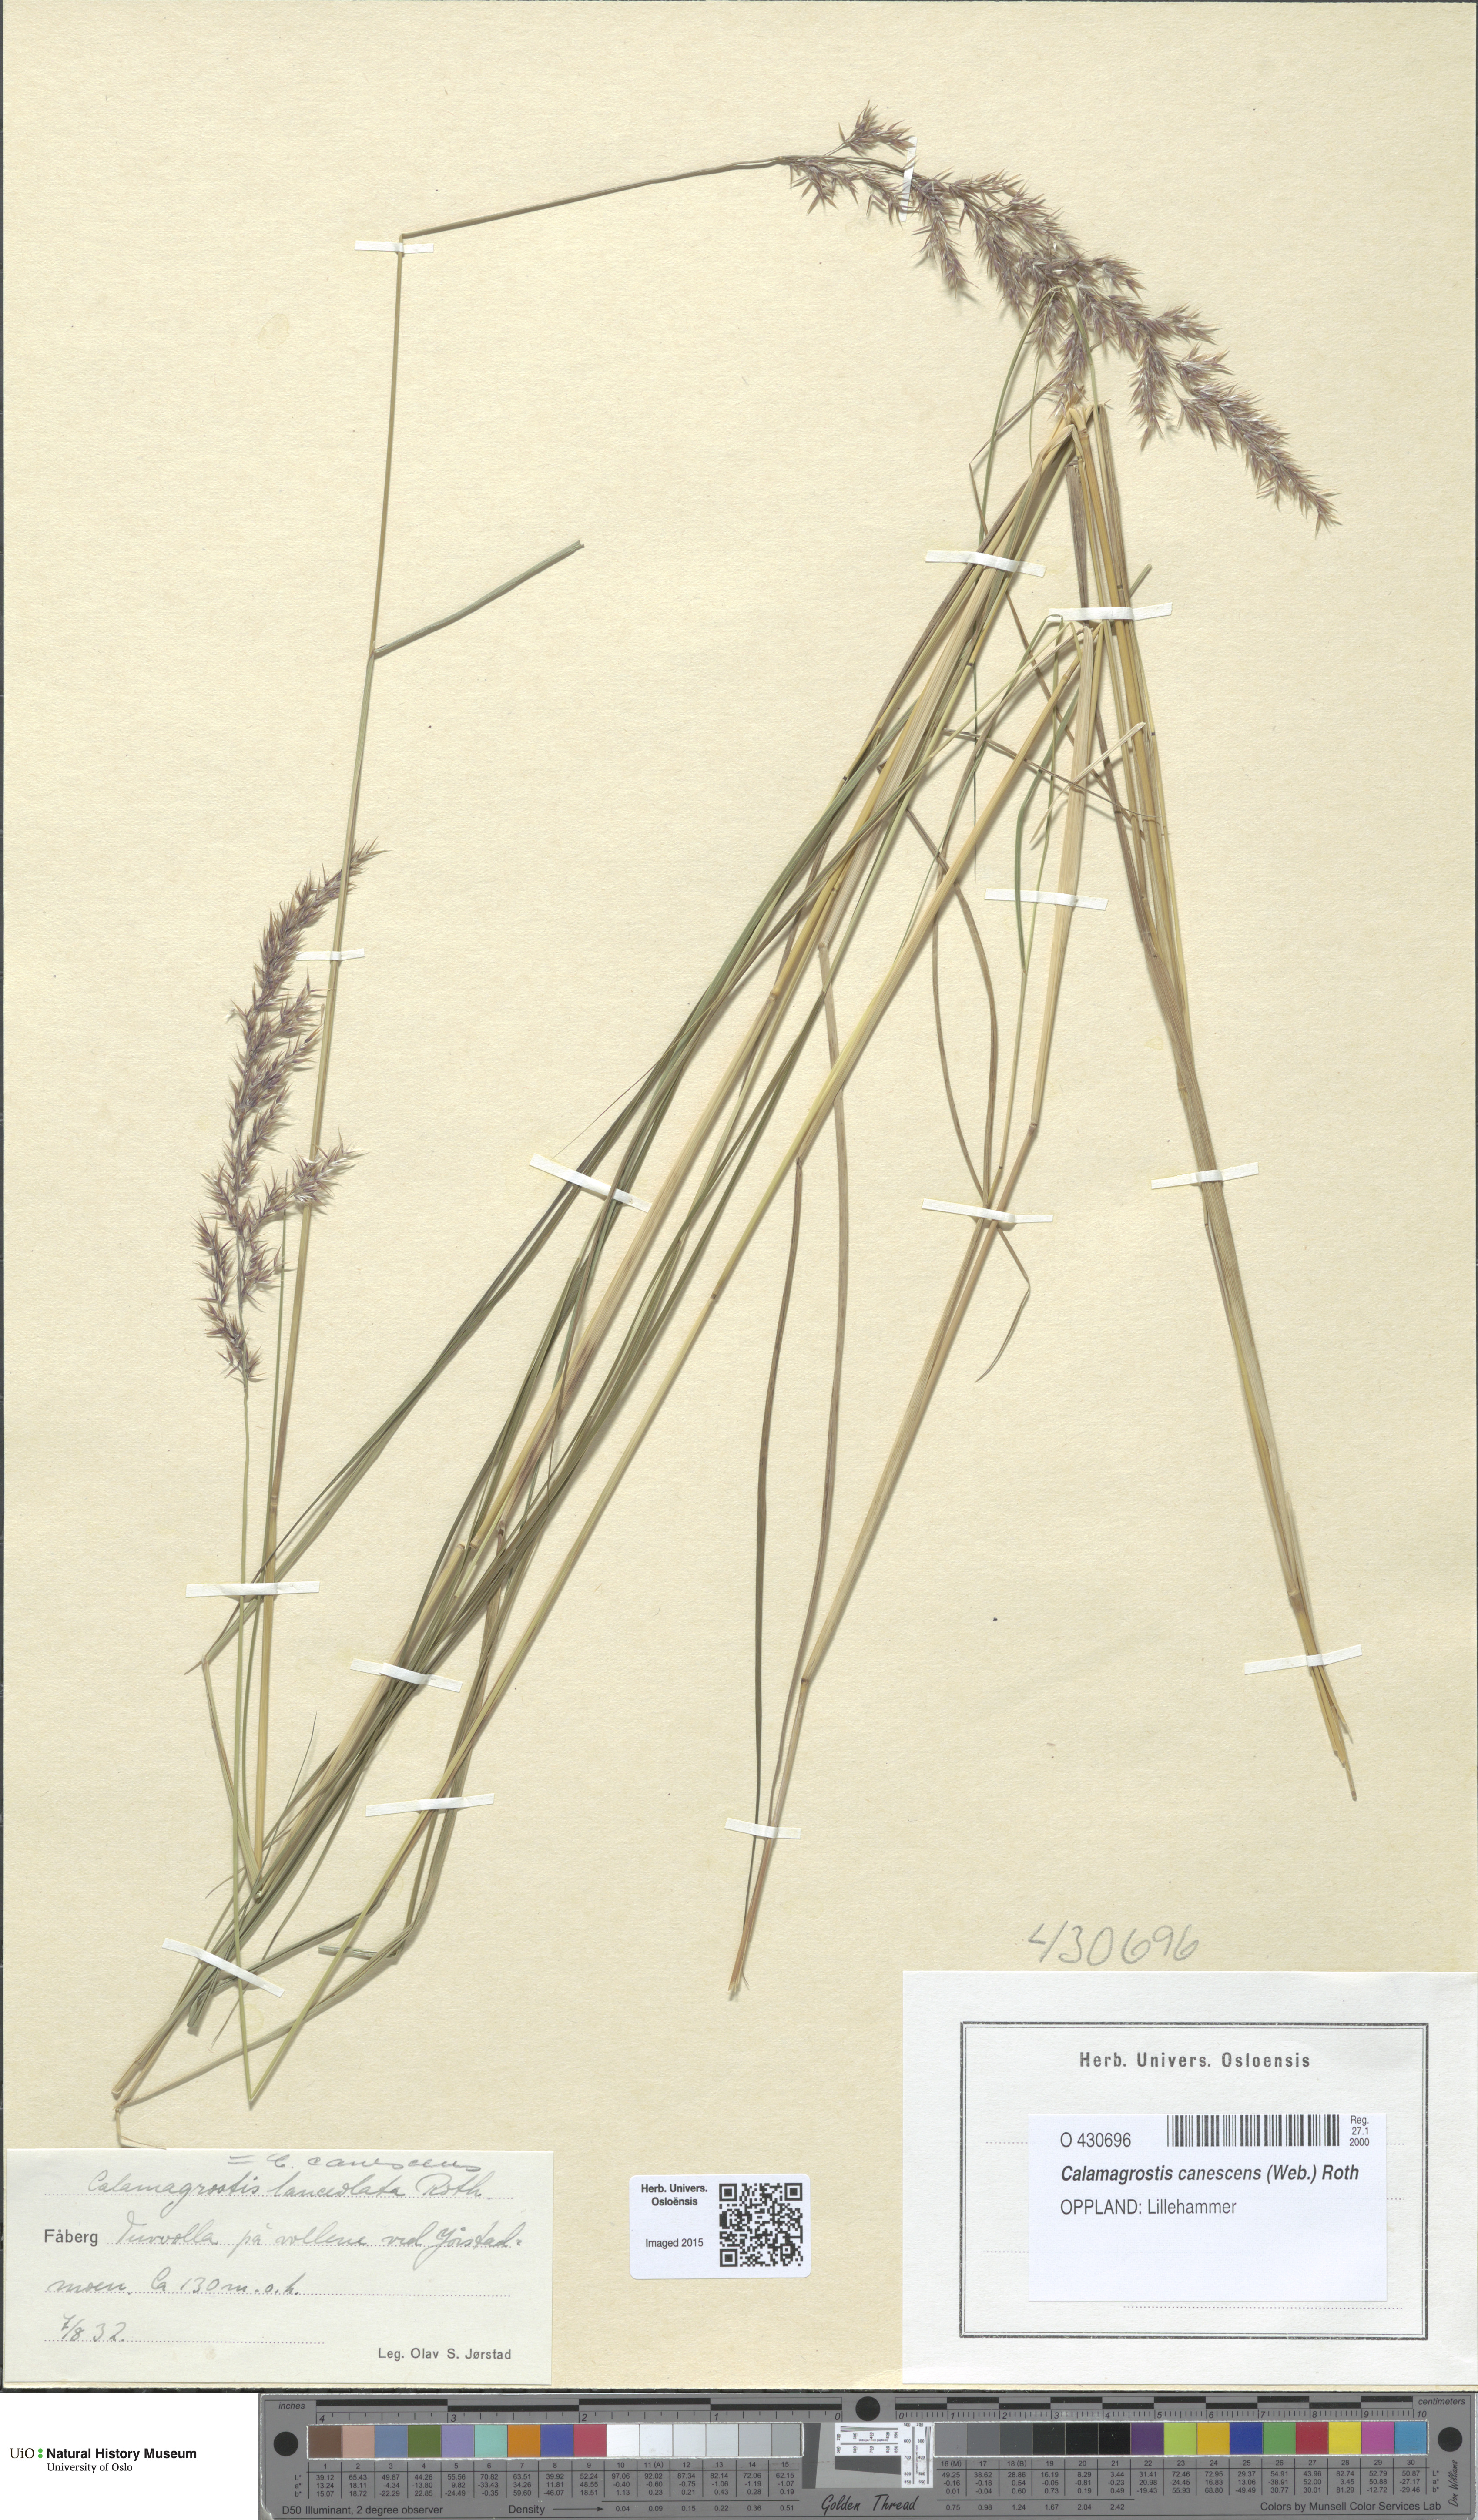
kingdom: Plantae
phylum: Tracheophyta
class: Liliopsida
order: Poales
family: Poaceae
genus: Calamagrostis
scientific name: Calamagrostis canescens
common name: Purple small-reed
